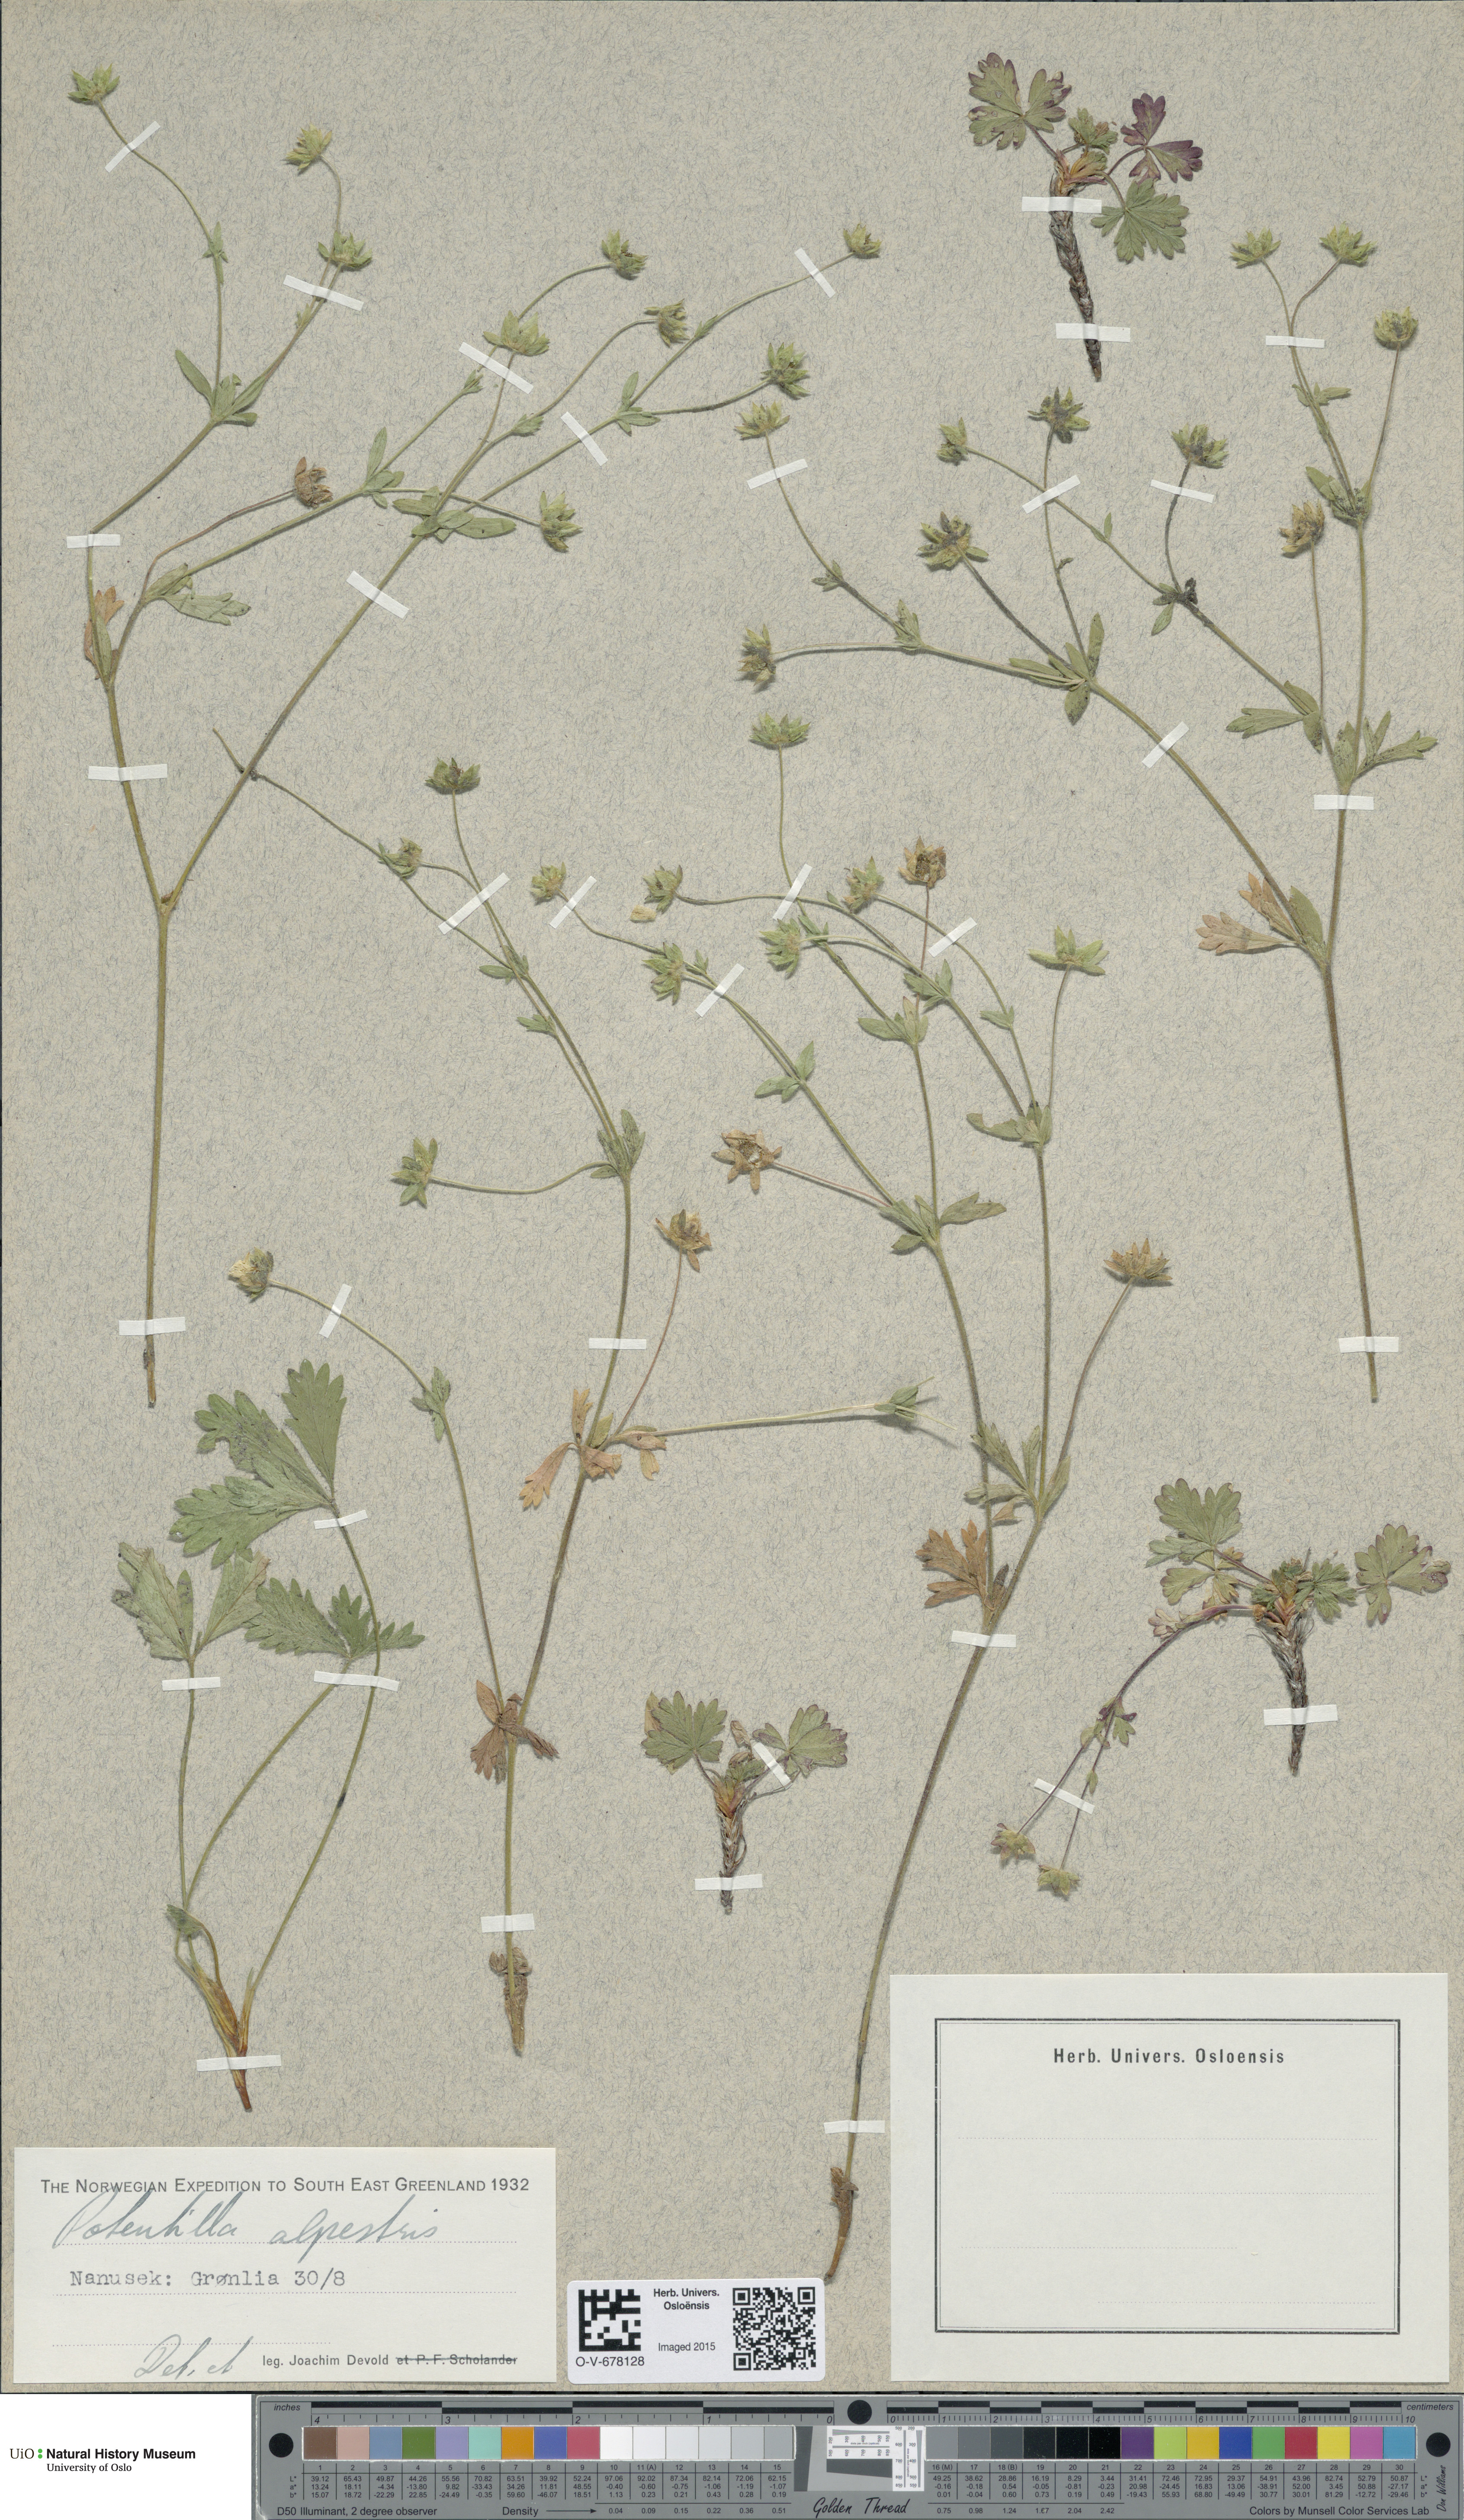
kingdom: Plantae
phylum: Tracheophyta
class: Magnoliopsida
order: Rosales
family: Rosaceae
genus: Potentilla
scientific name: Potentilla crantzii
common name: Alpine cinquefoil
